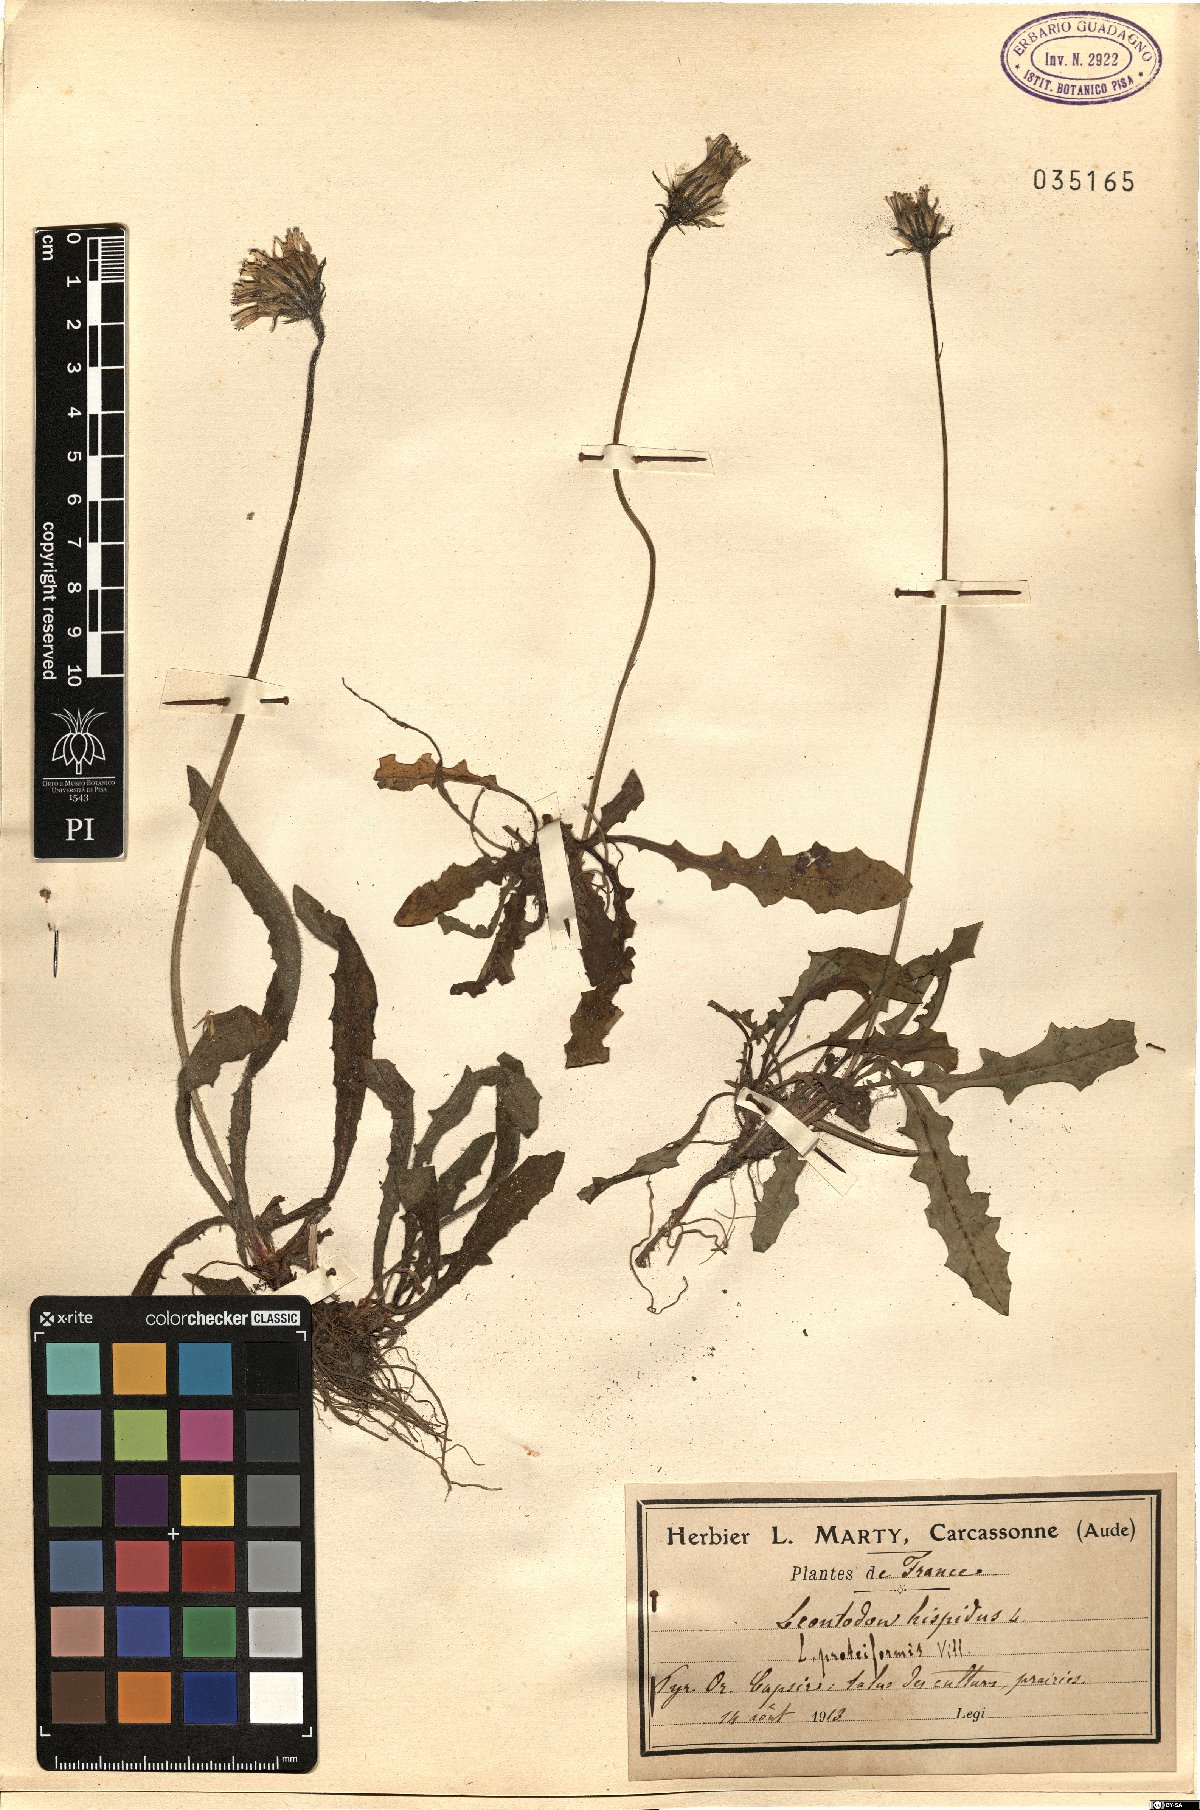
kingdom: Plantae
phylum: Tracheophyta
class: Magnoliopsida
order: Asterales
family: Asteraceae
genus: Leontodon
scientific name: Leontodon hispidus
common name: Rough hawkbit
